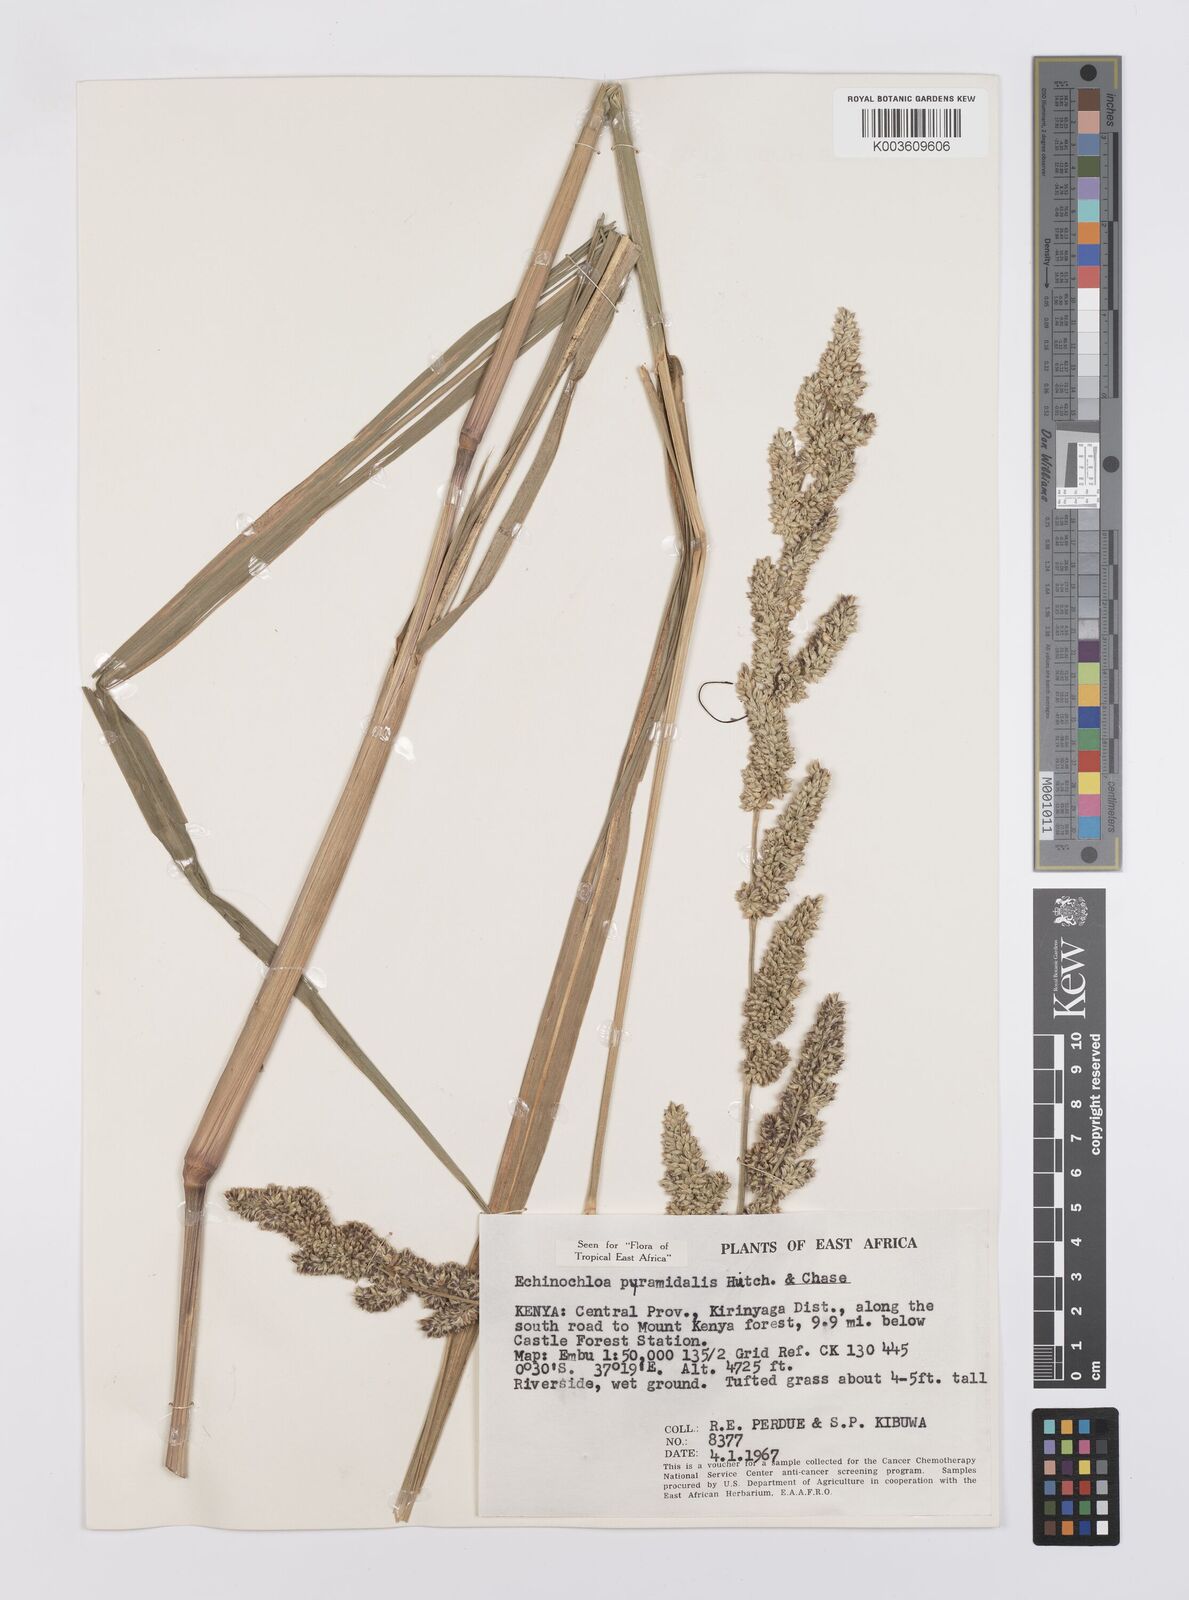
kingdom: Plantae
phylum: Tracheophyta
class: Liliopsida
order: Poales
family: Poaceae
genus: Echinochloa
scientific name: Echinochloa
